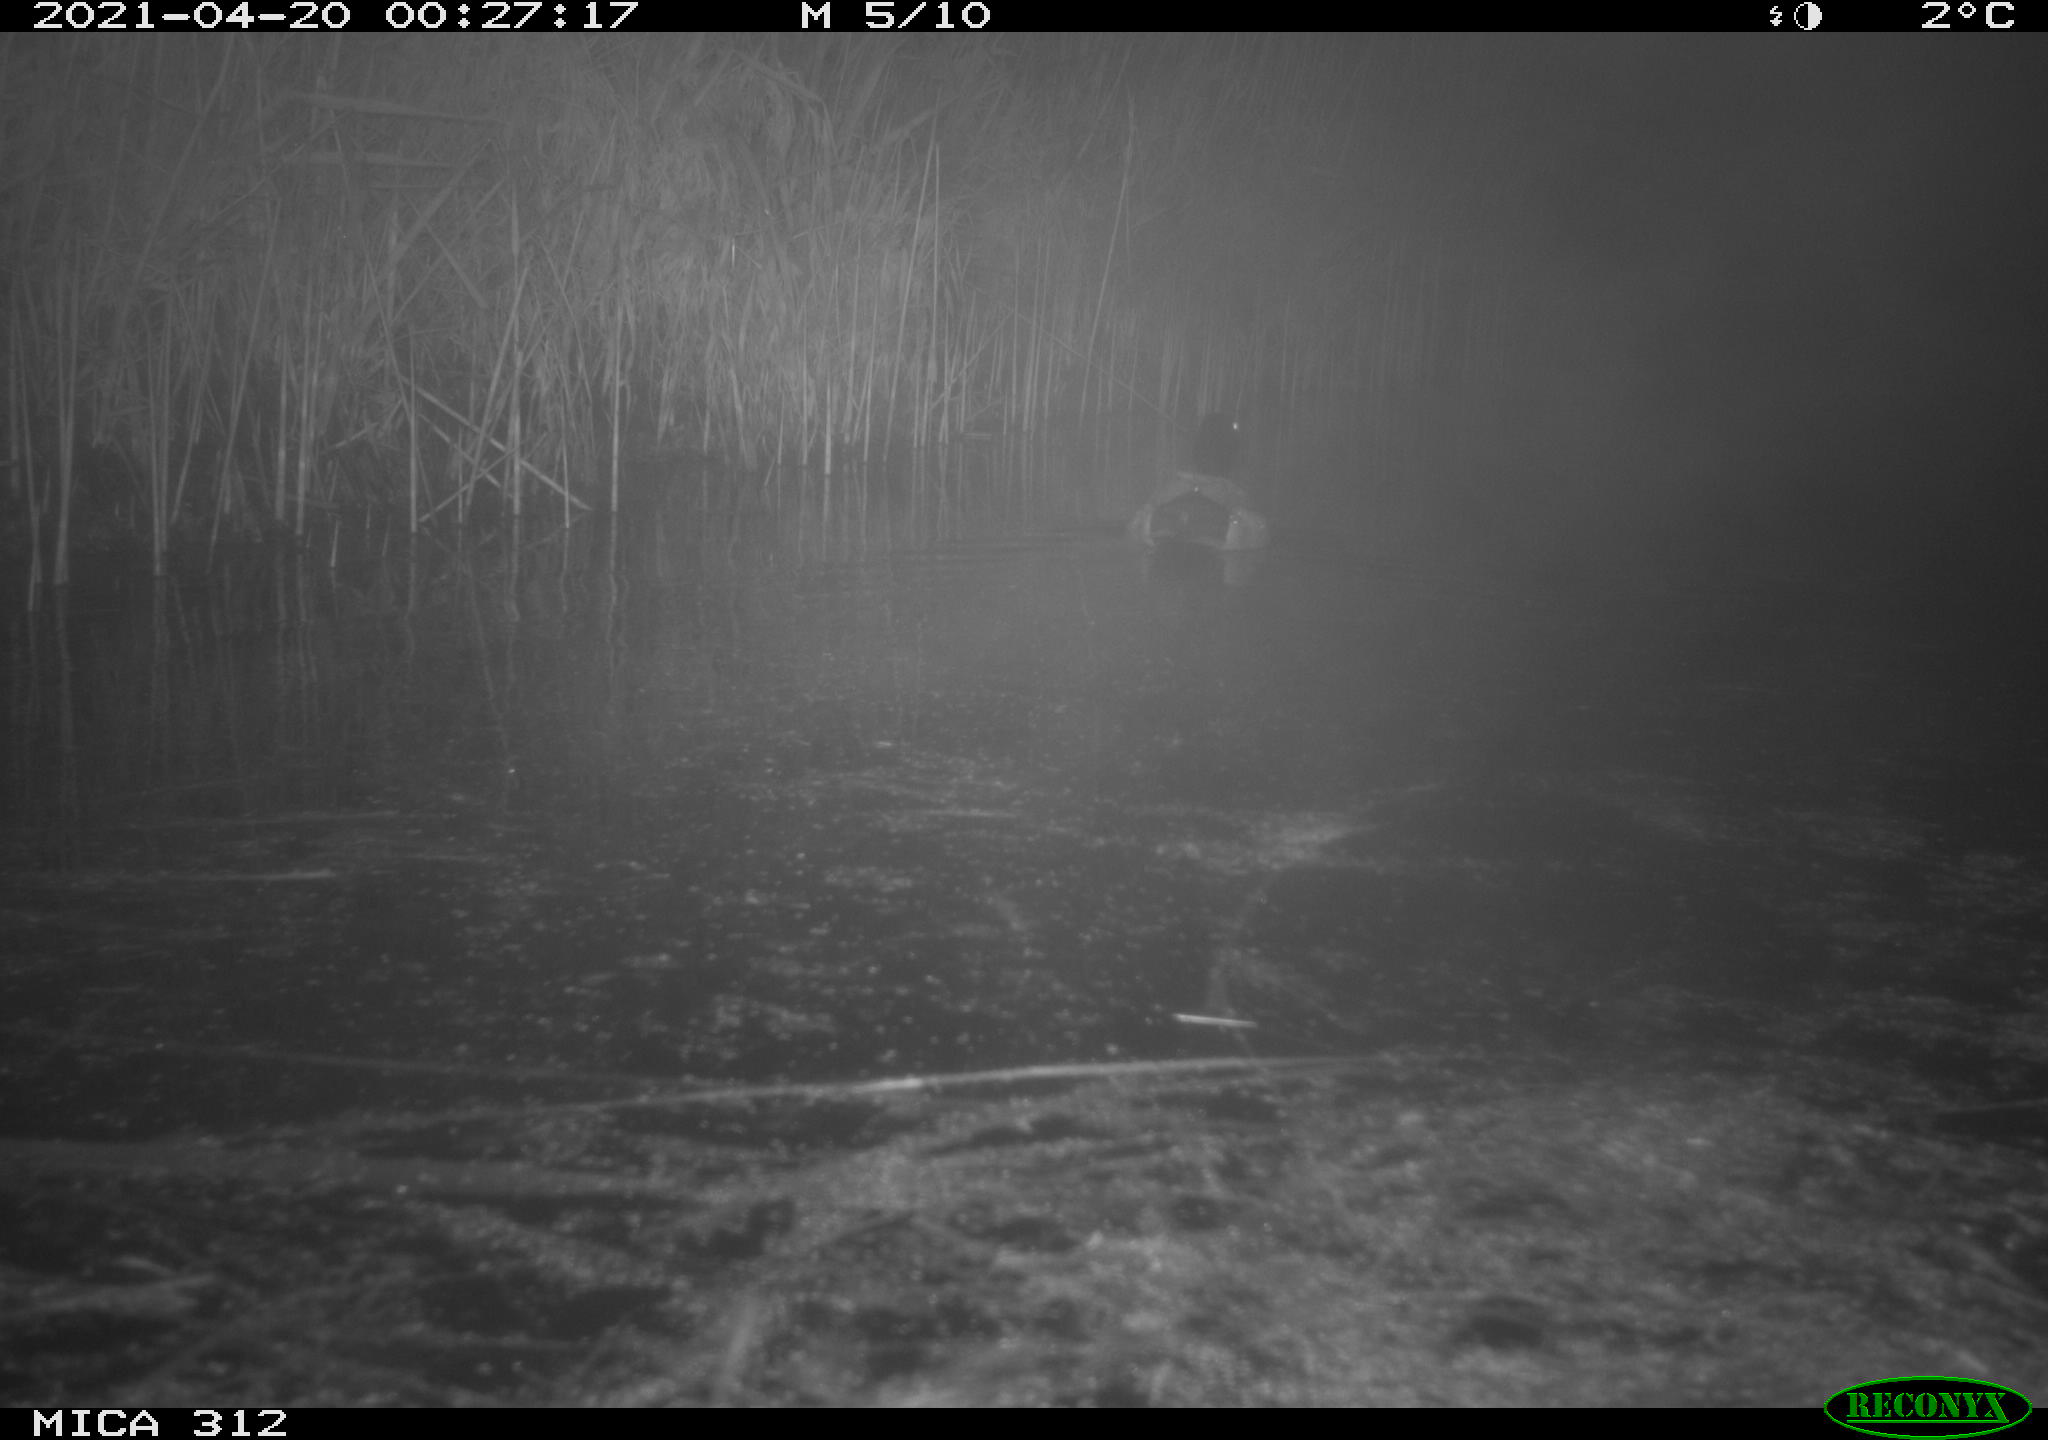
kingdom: Animalia
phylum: Chordata
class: Aves
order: Anseriformes
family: Anatidae
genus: Anas
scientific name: Anas platyrhynchos
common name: Mallard
